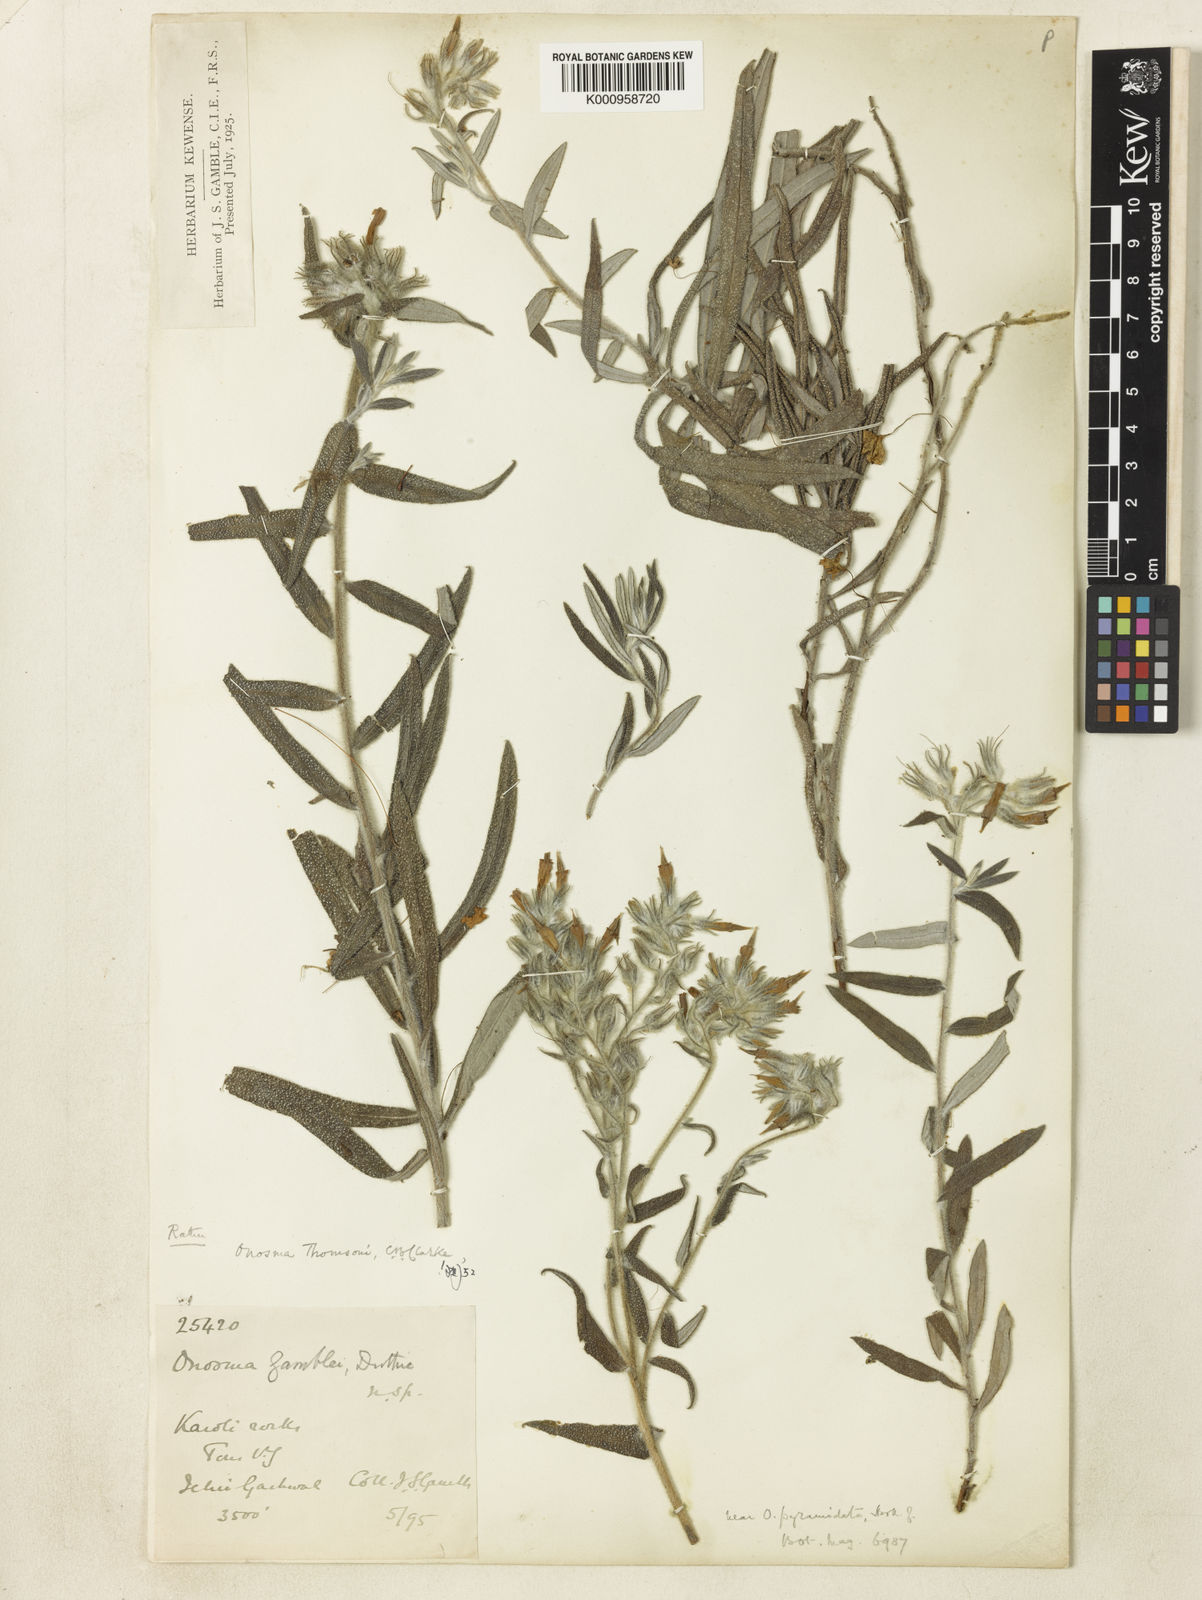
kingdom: Plantae
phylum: Tracheophyta
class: Magnoliopsida
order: Boraginales
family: Boraginaceae
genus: Maharanga
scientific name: Maharanga thomsonii
